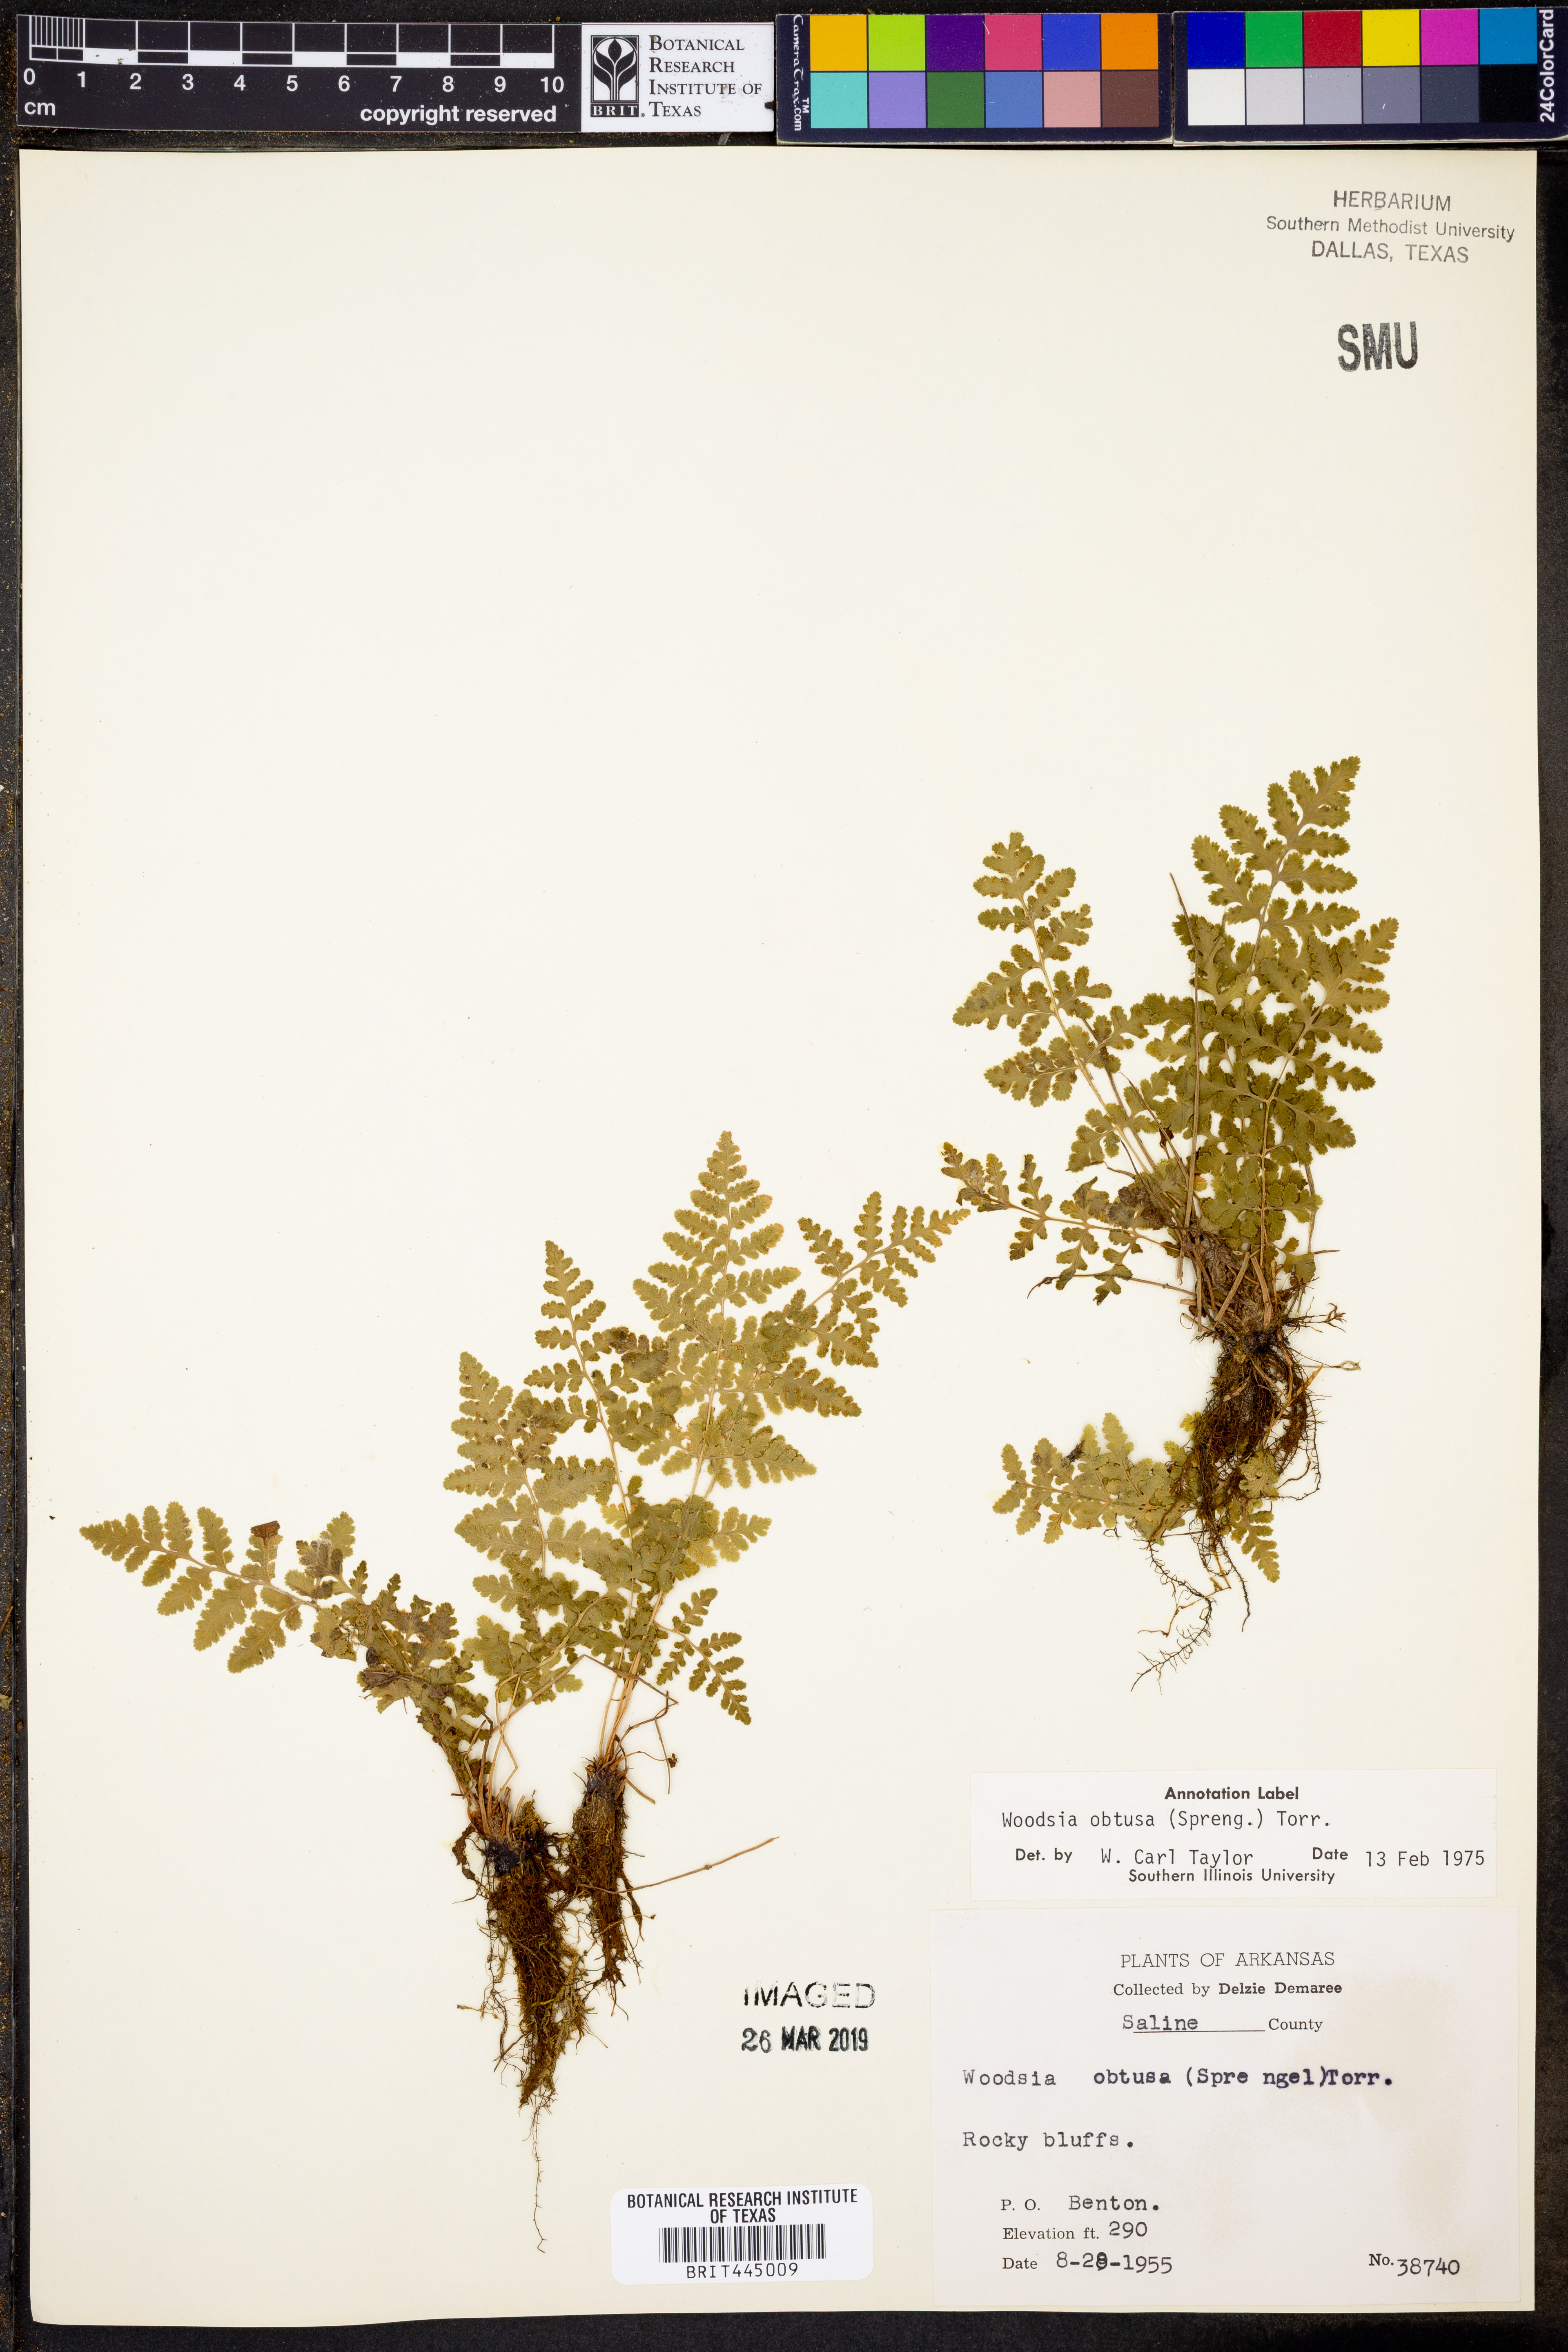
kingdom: Plantae
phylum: Tracheophyta
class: Polypodiopsida
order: Polypodiales
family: Woodsiaceae
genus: Physematium
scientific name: Physematium obtusum
